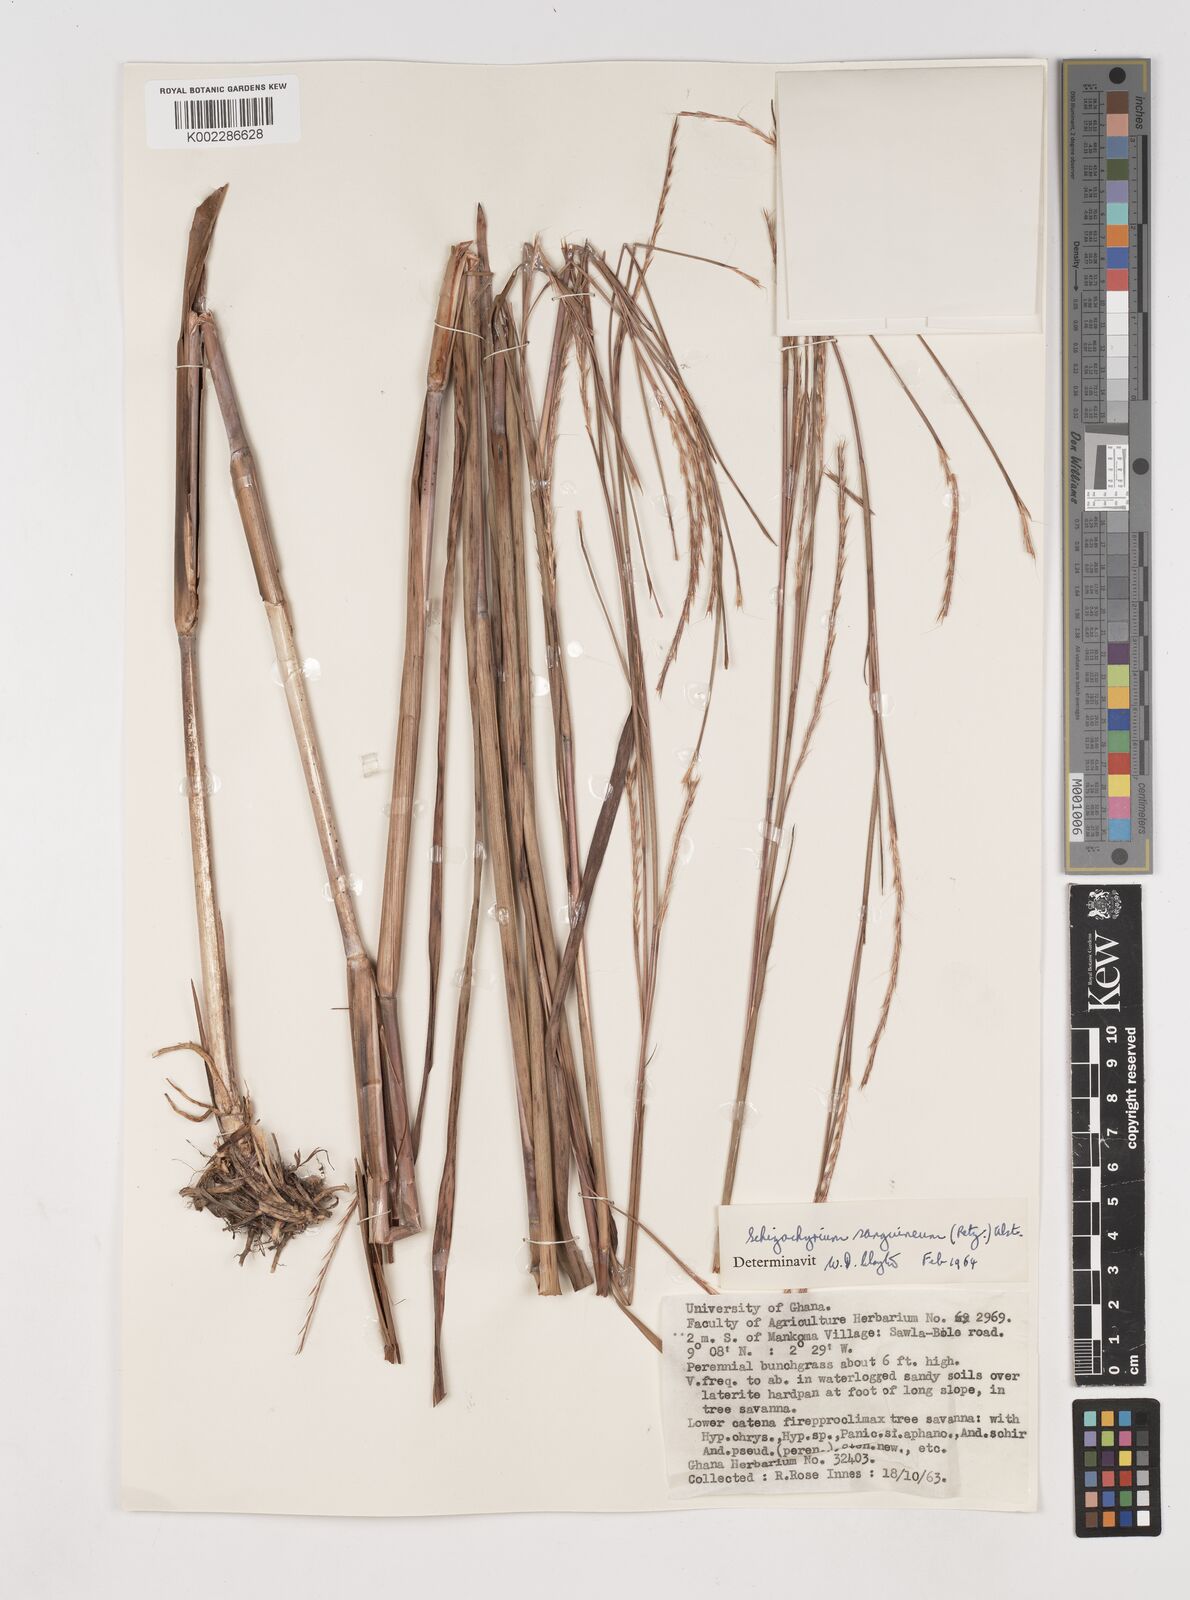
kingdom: Plantae
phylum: Tracheophyta
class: Liliopsida
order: Poales
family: Poaceae
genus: Schizachyrium
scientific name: Schizachyrium sanguineum
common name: Crimson bluestem
